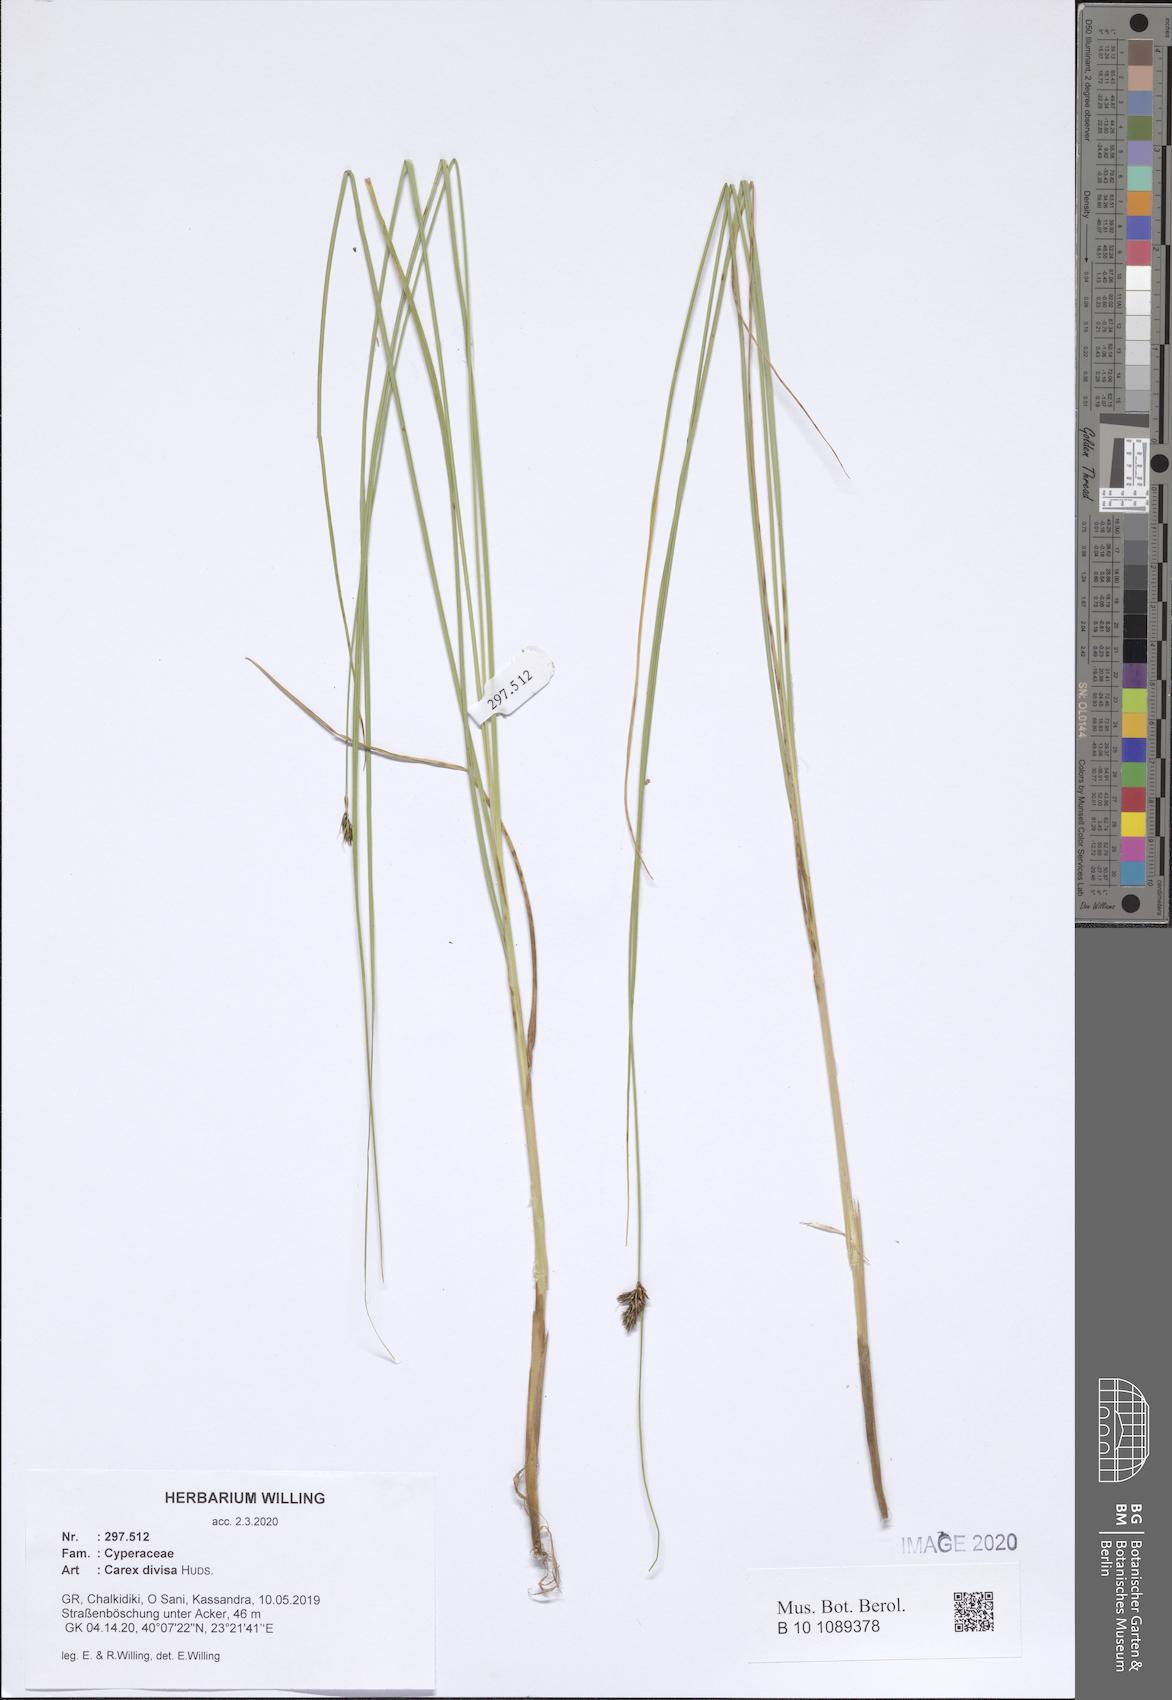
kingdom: Plantae
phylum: Tracheophyta
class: Liliopsida
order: Poales
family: Cyperaceae
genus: Carex
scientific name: Carex divisa
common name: Divided sedge
